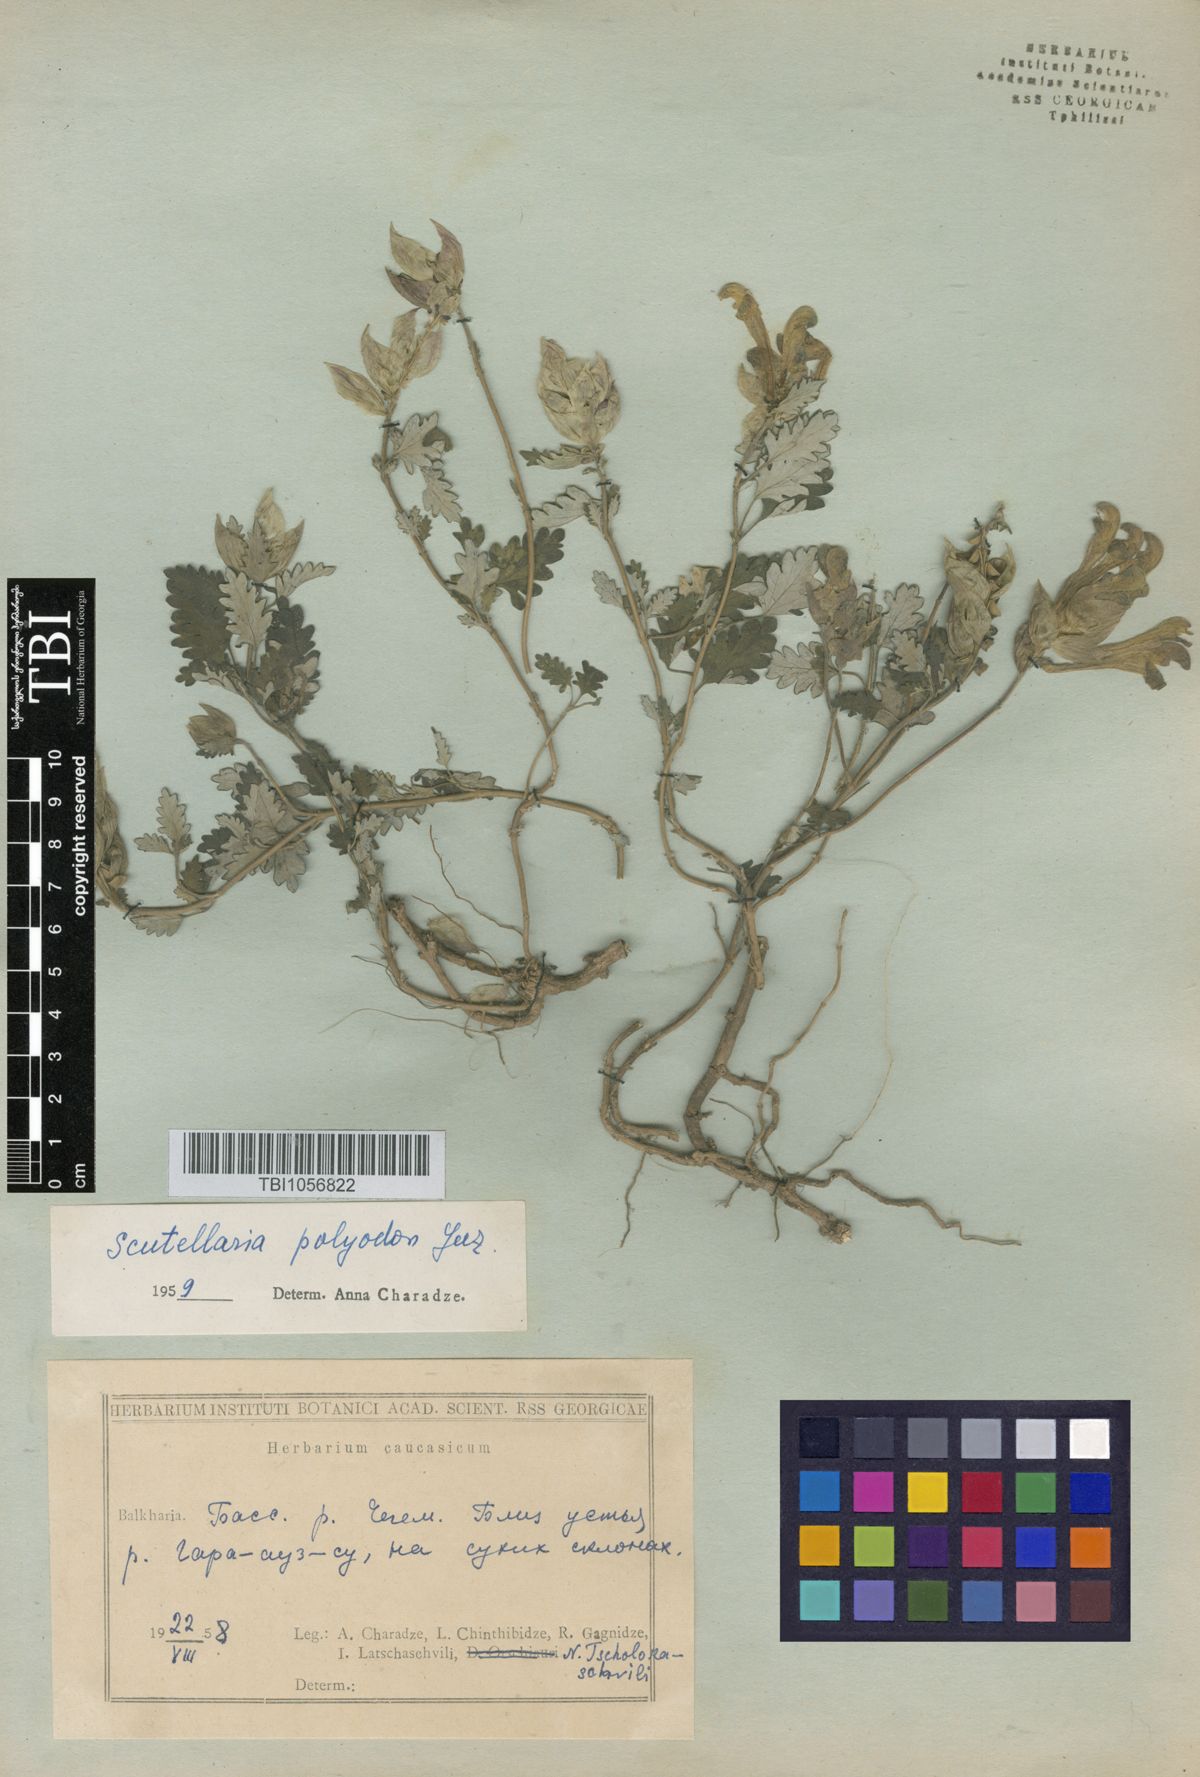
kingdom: Plantae
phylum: Tracheophyta
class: Magnoliopsida
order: Lamiales
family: Lamiaceae
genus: Scutellaria
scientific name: Scutellaria caucasica
